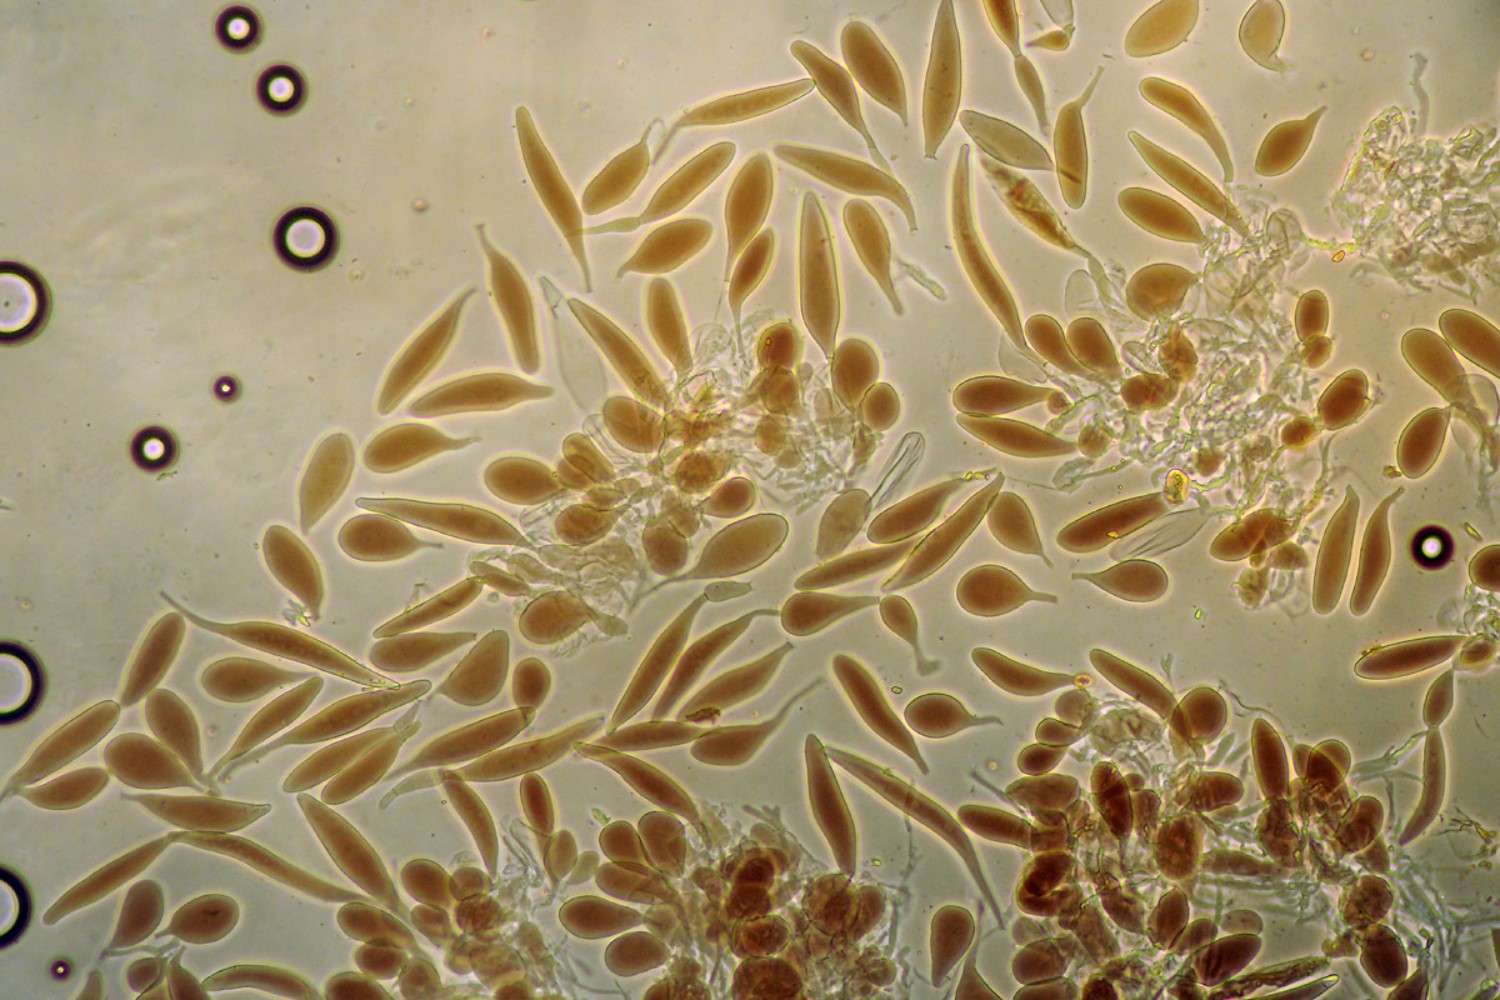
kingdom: Fungi
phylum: Basidiomycota
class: Agaricomycetes
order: Agaricales
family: Pluteaceae
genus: Pluteus
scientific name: Pluteus podospileus
